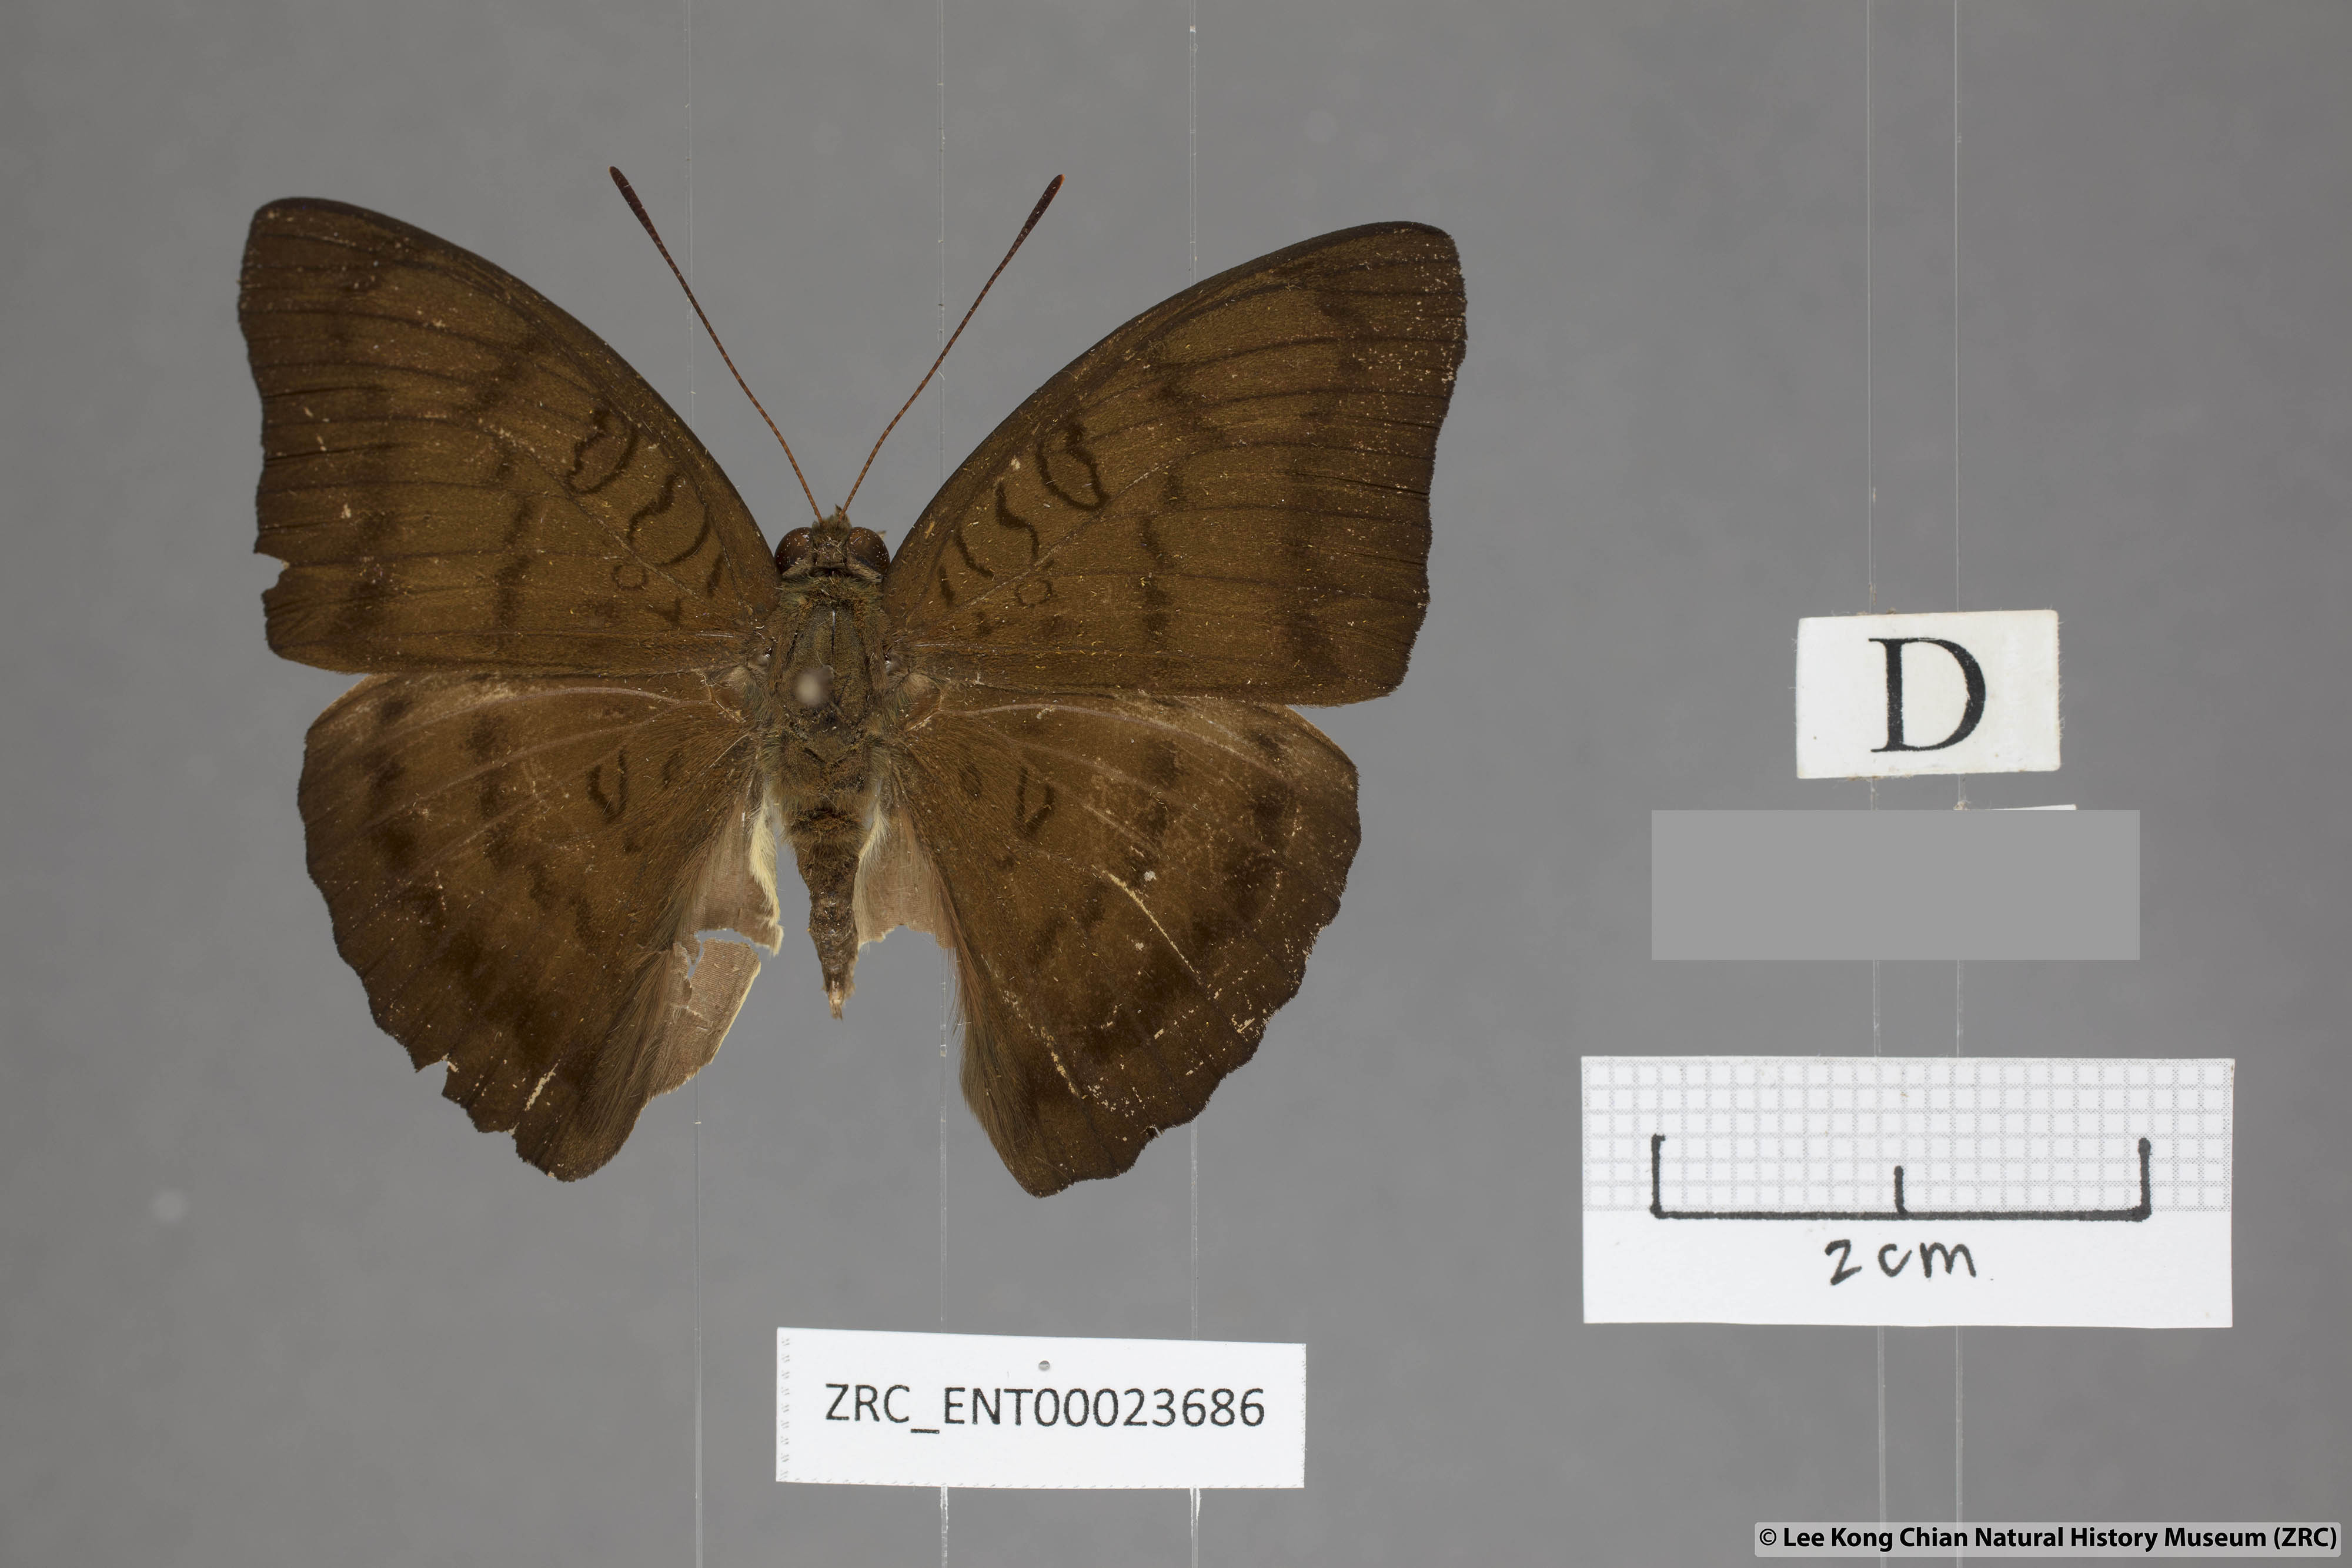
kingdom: Animalia
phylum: Arthropoda
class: Insecta
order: Lepidoptera
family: Nymphalidae
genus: Euthalia
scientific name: Euthalia kanda
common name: Yellow baron
